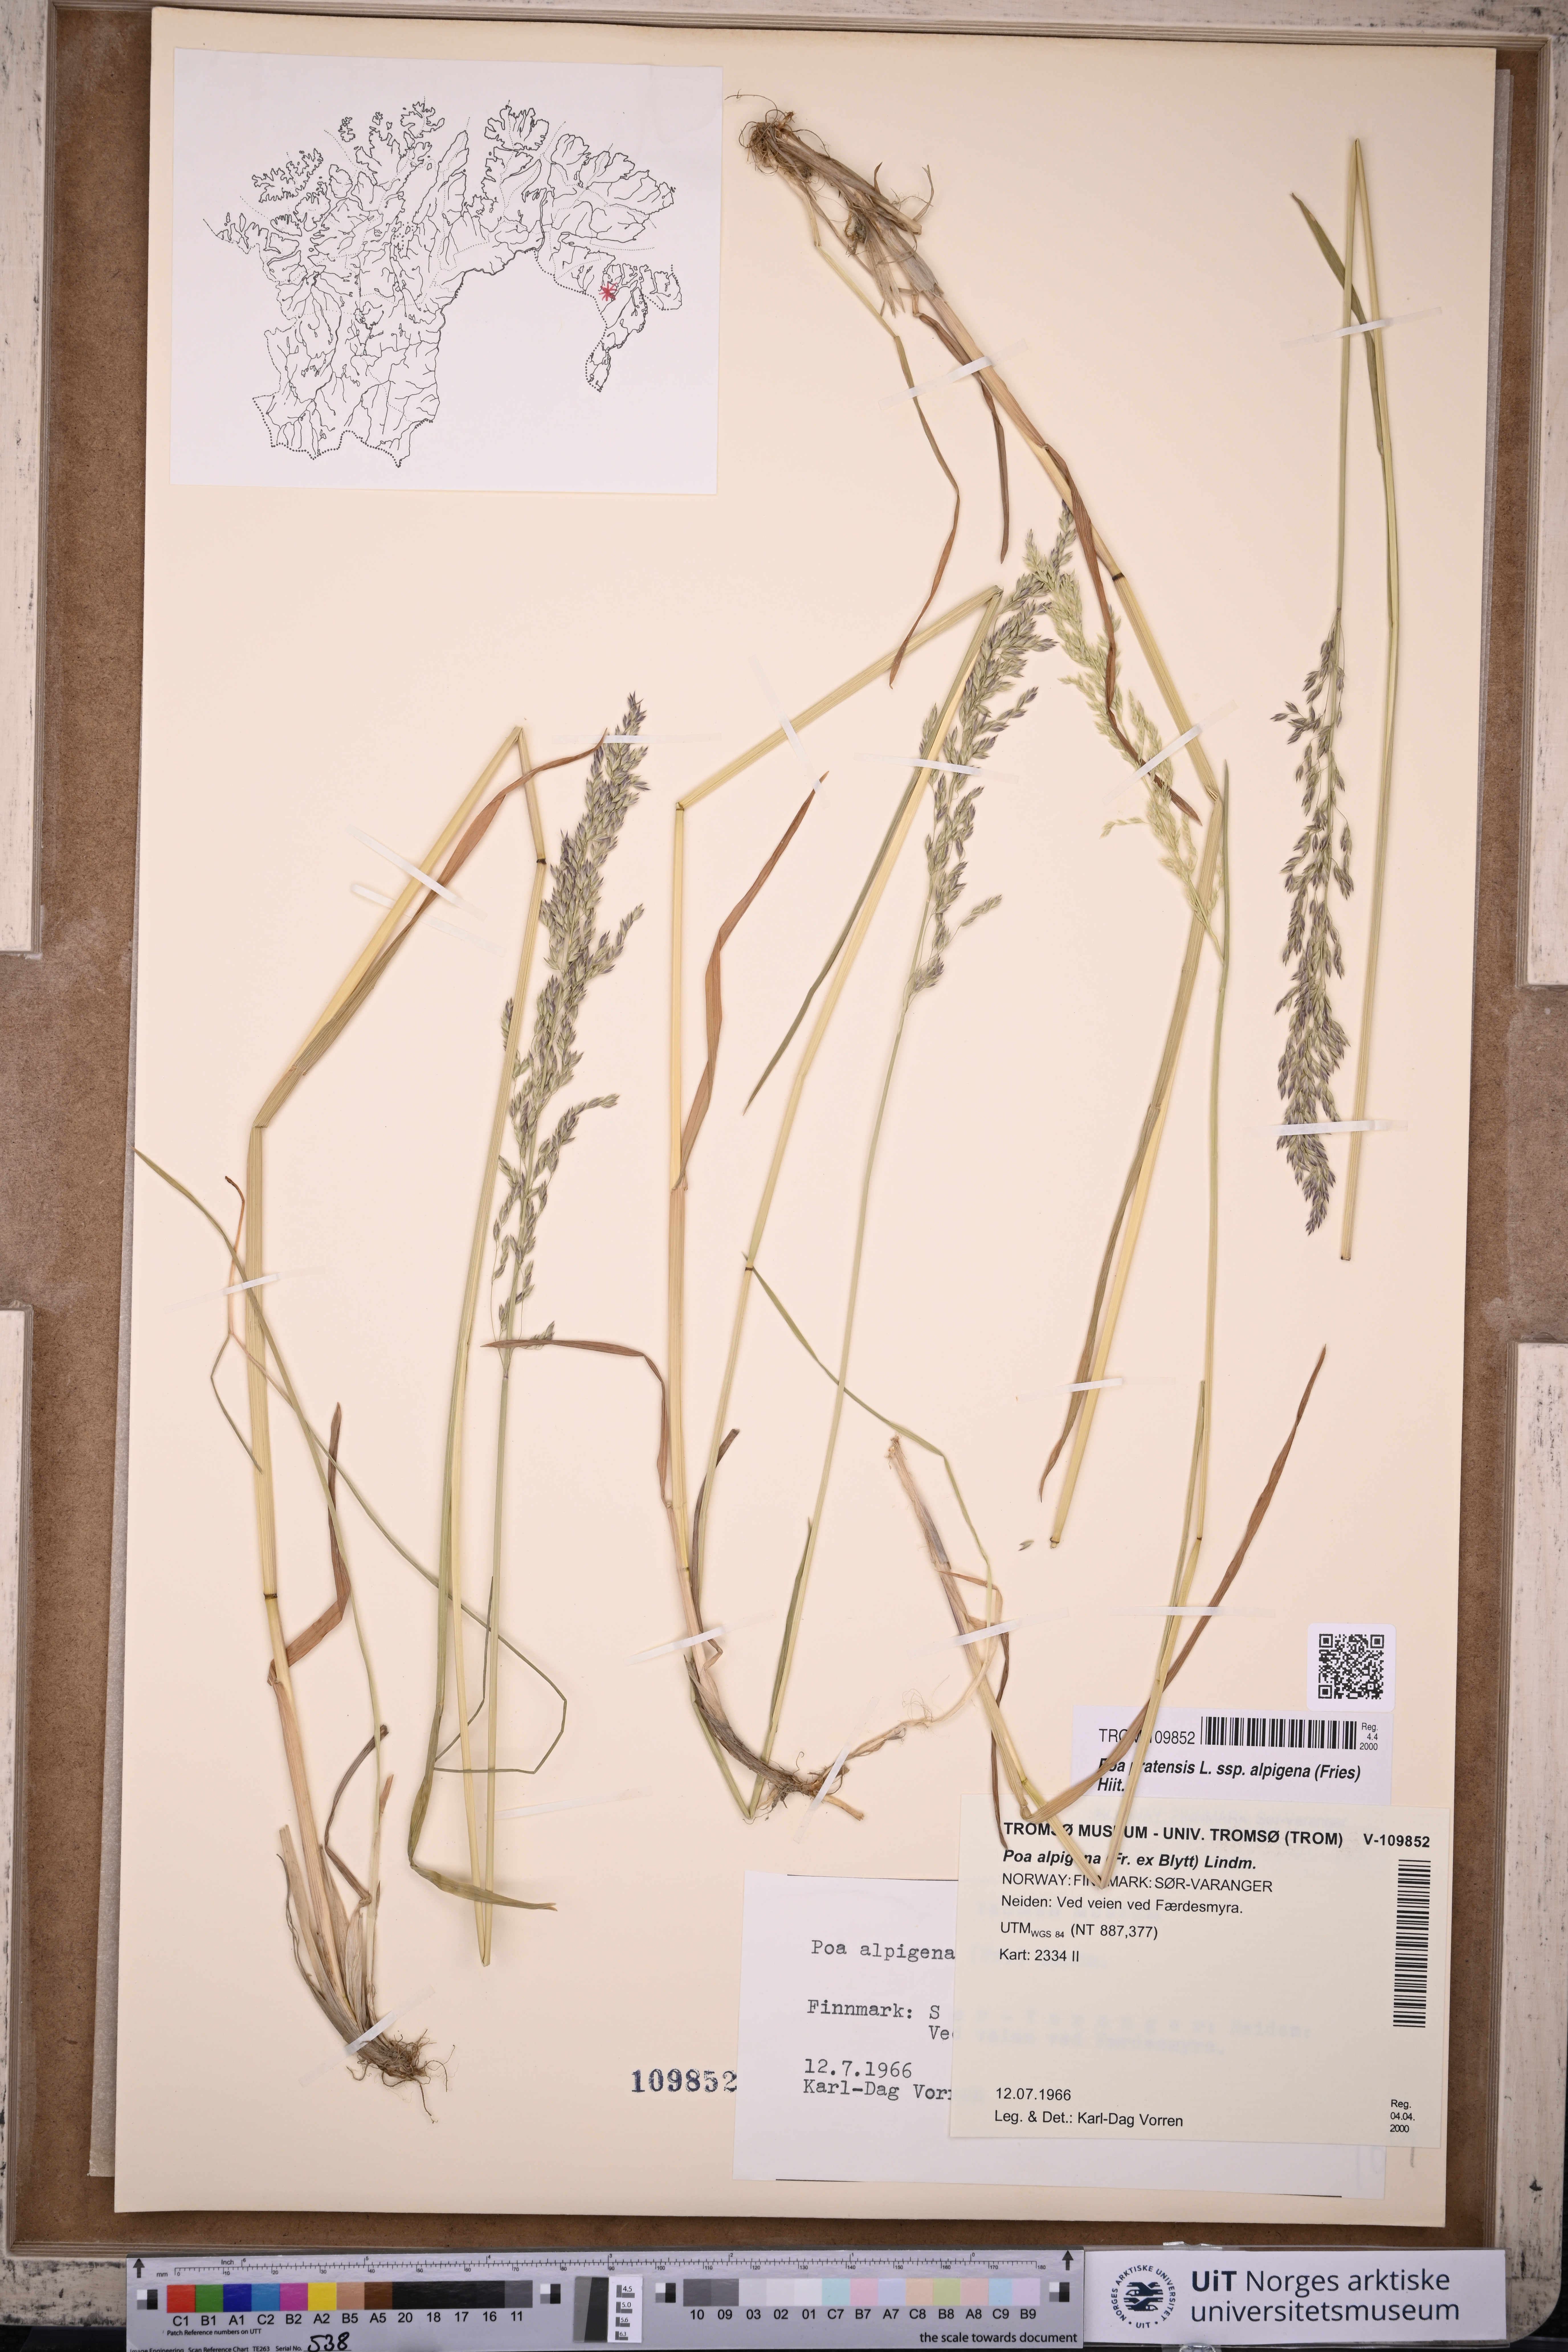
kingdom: Plantae
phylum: Tracheophyta
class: Liliopsida
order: Poales
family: Poaceae
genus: Poa
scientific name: Poa alpigena
